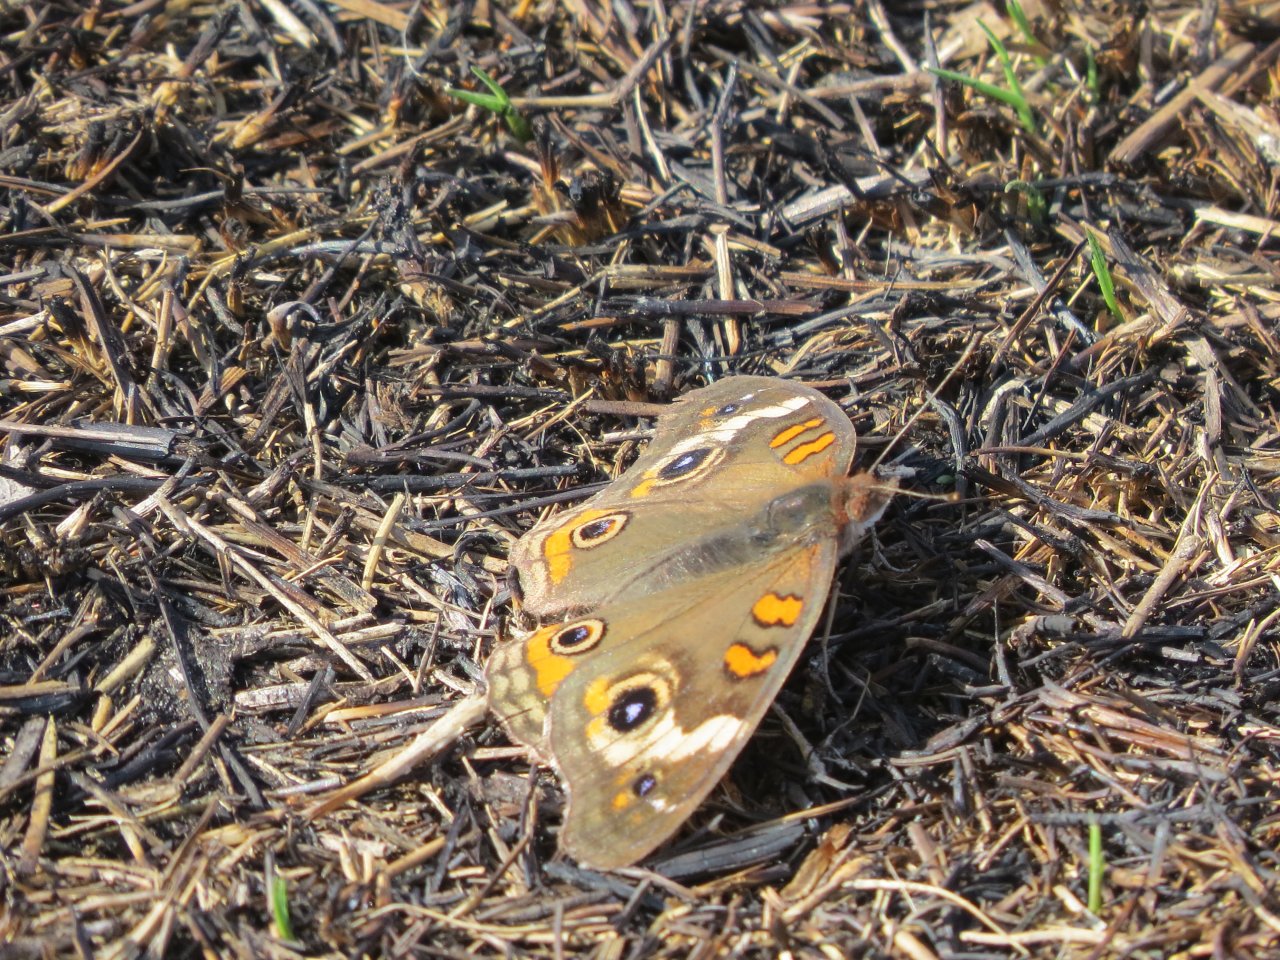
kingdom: Animalia
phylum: Arthropoda
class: Insecta
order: Lepidoptera
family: Nymphalidae
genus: Junonia
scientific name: Junonia coenia
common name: Common Buckeye
